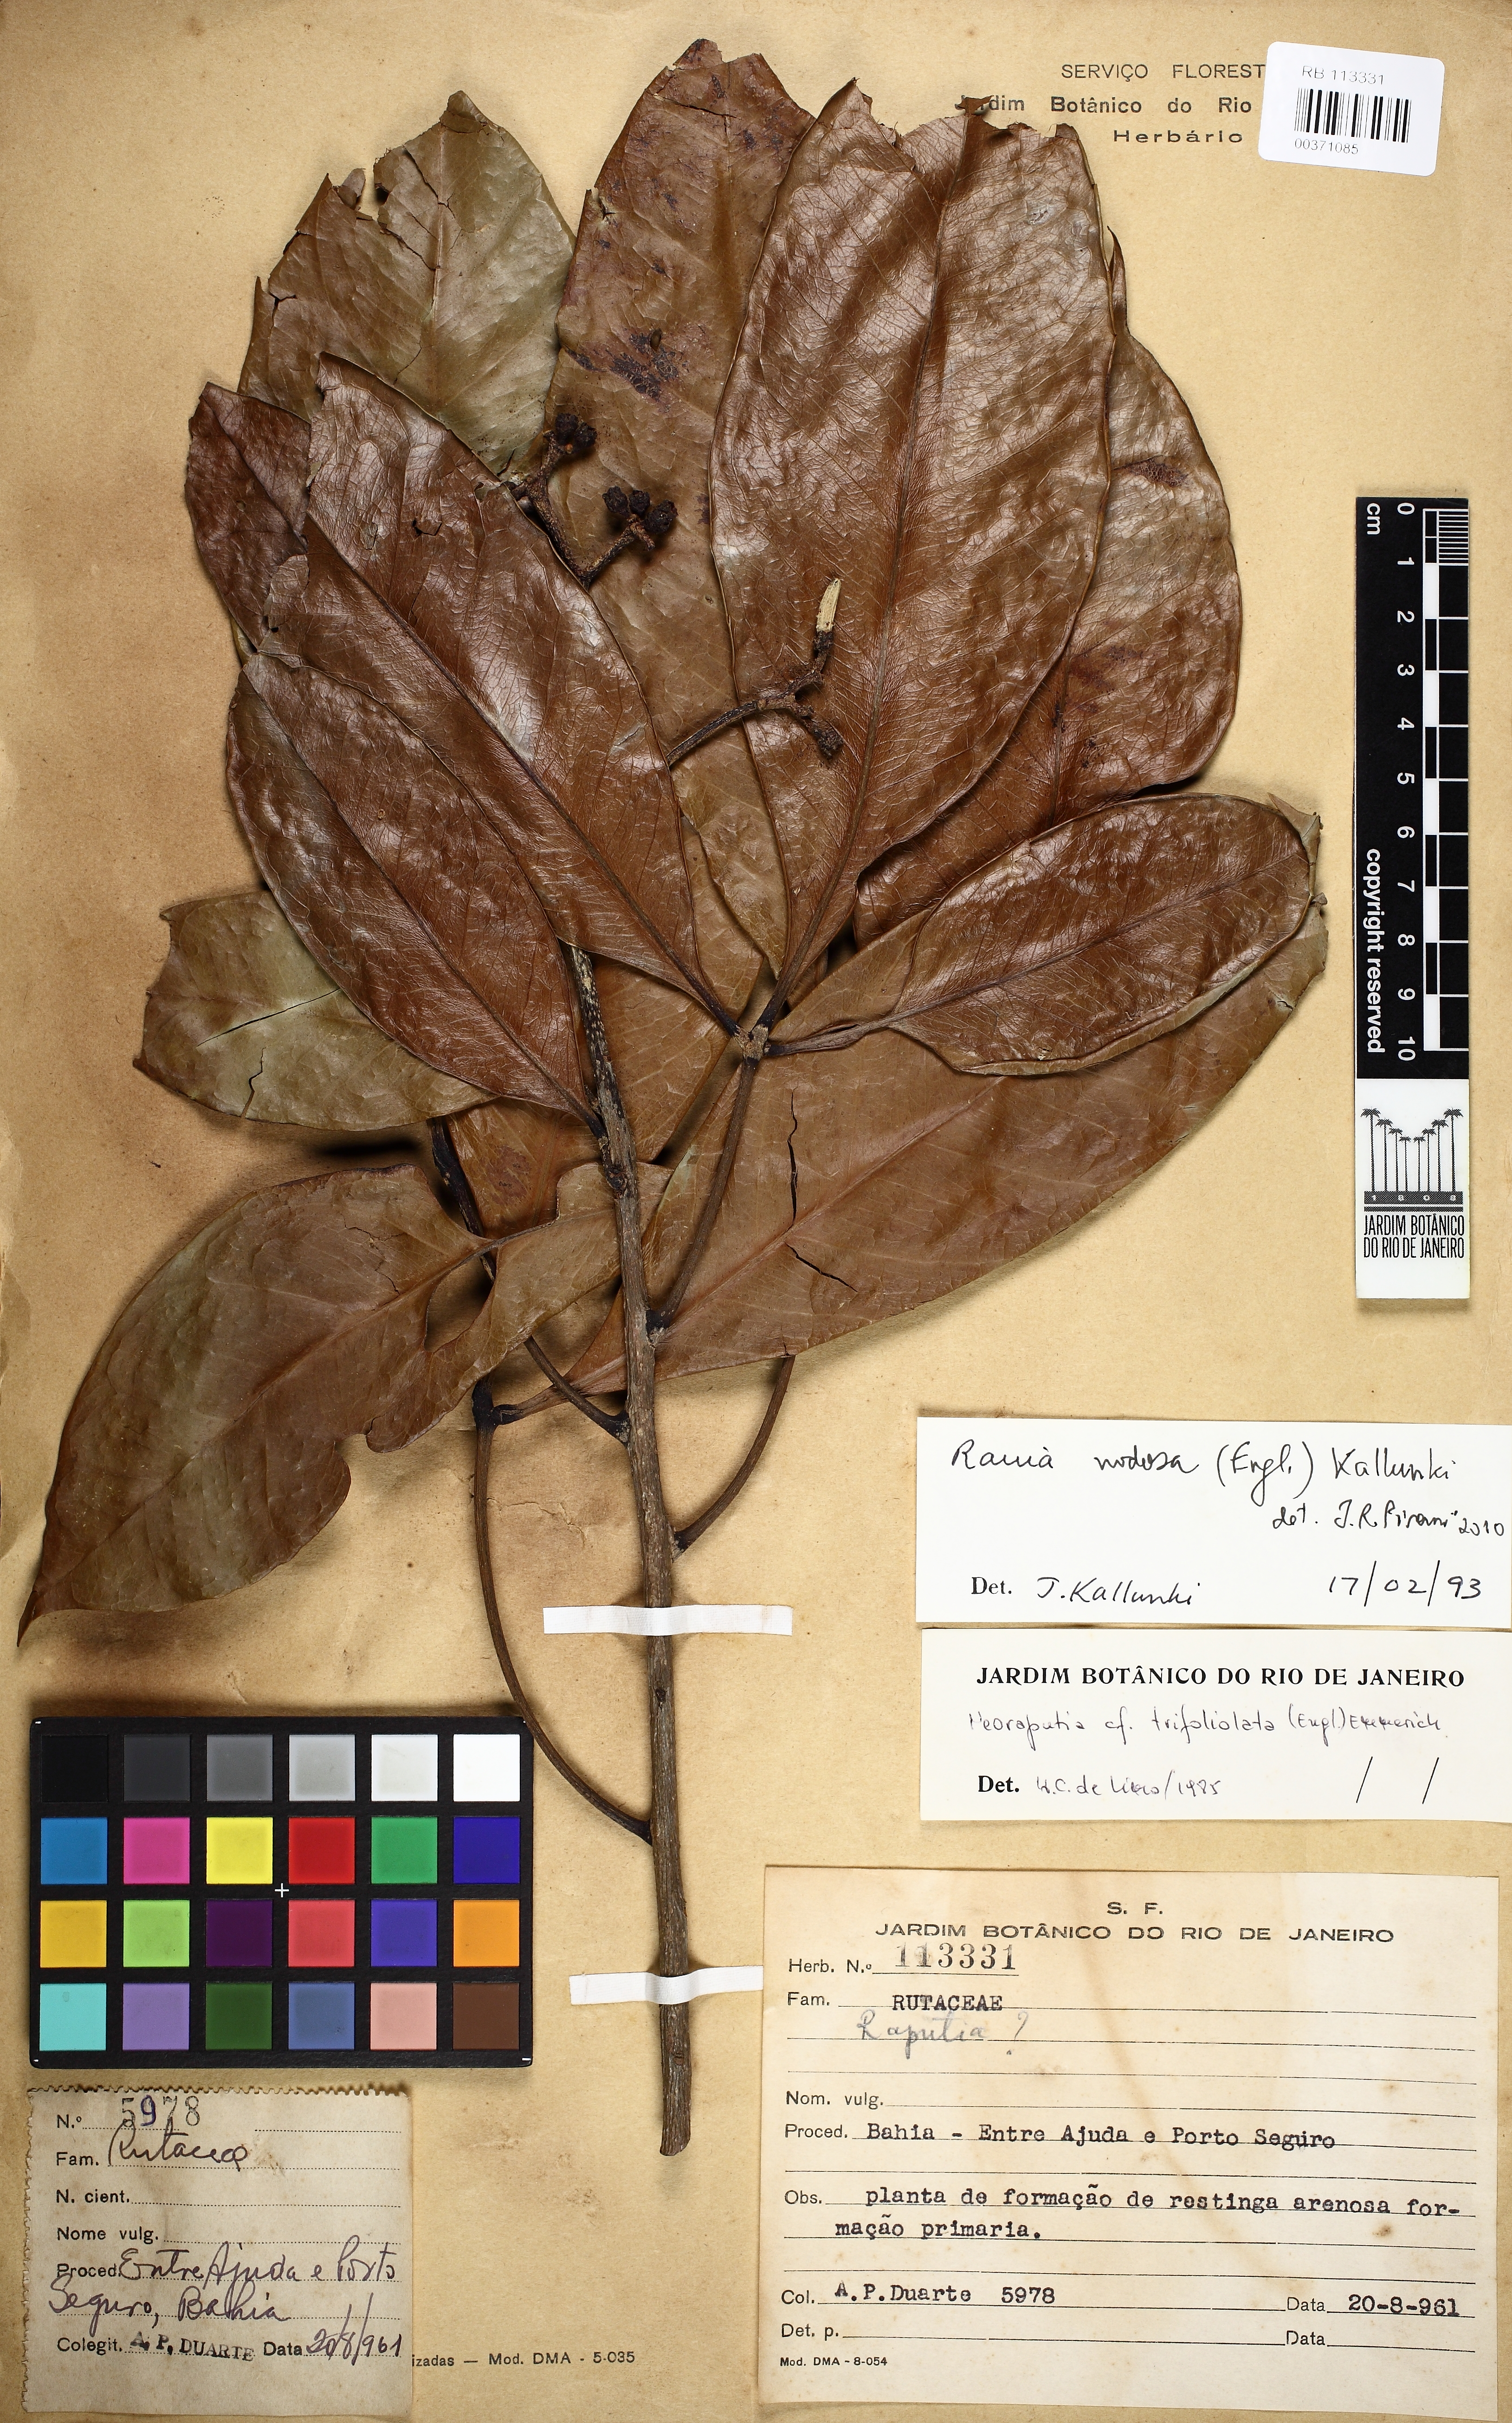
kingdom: Plantae
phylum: Tracheophyta
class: Magnoliopsida
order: Sapindales
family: Rutaceae
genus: Rauia
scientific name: Rauia
